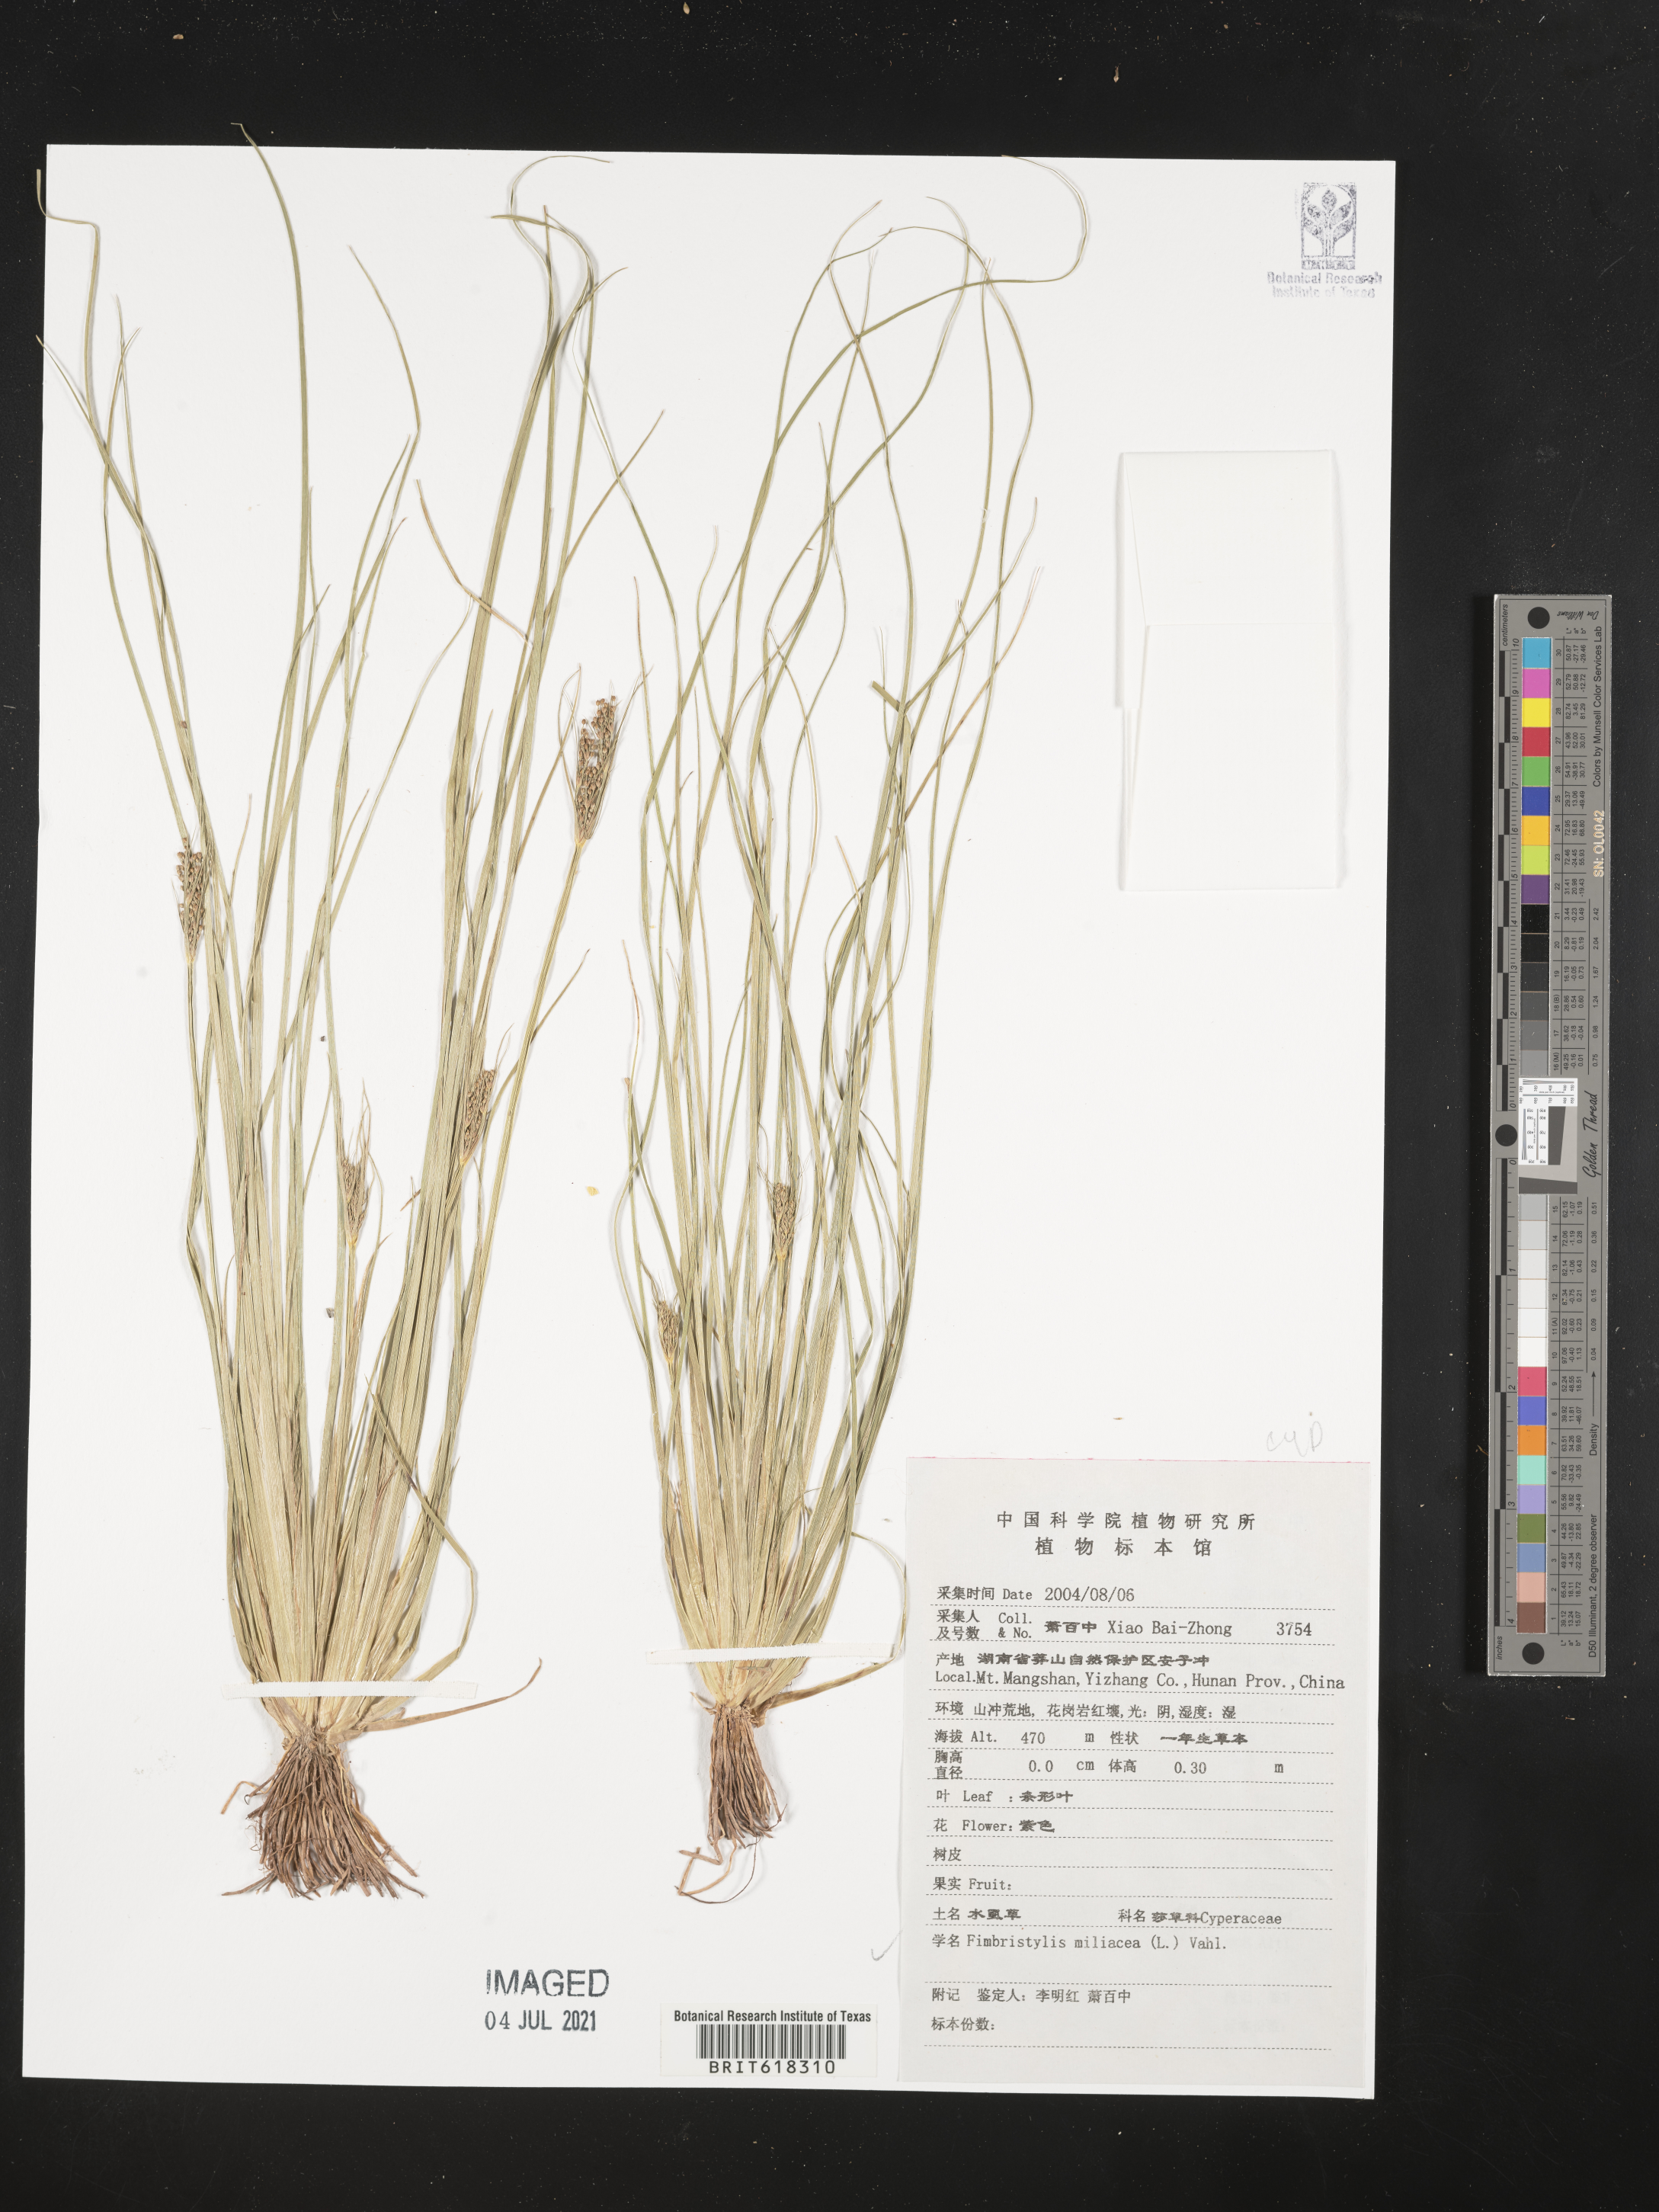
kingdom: Plantae
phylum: Tracheophyta
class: Liliopsida
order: Poales
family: Cyperaceae
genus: Fimbristylis
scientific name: Fimbristylis quinquangularis
